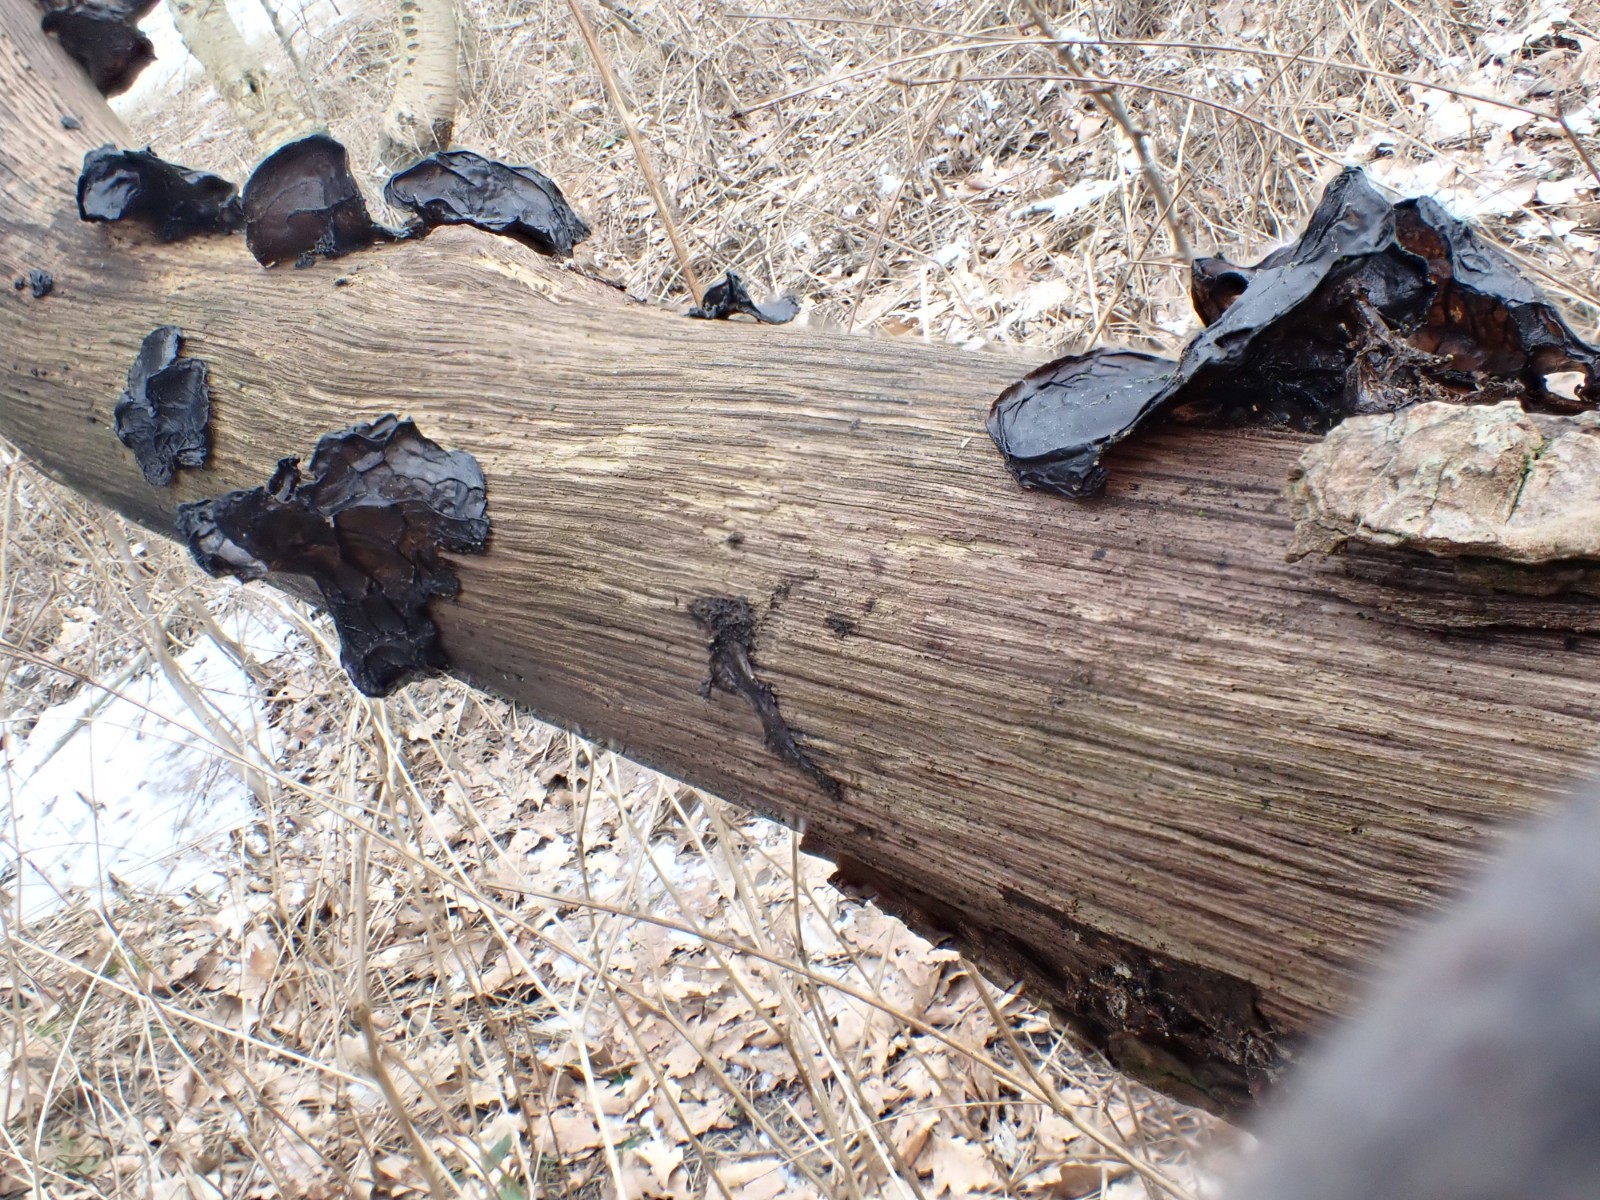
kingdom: Fungi
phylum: Basidiomycota
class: Agaricomycetes
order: Auriculariales
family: Auriculariaceae
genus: Exidia
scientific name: Exidia glandulosa
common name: ege-bævretop
